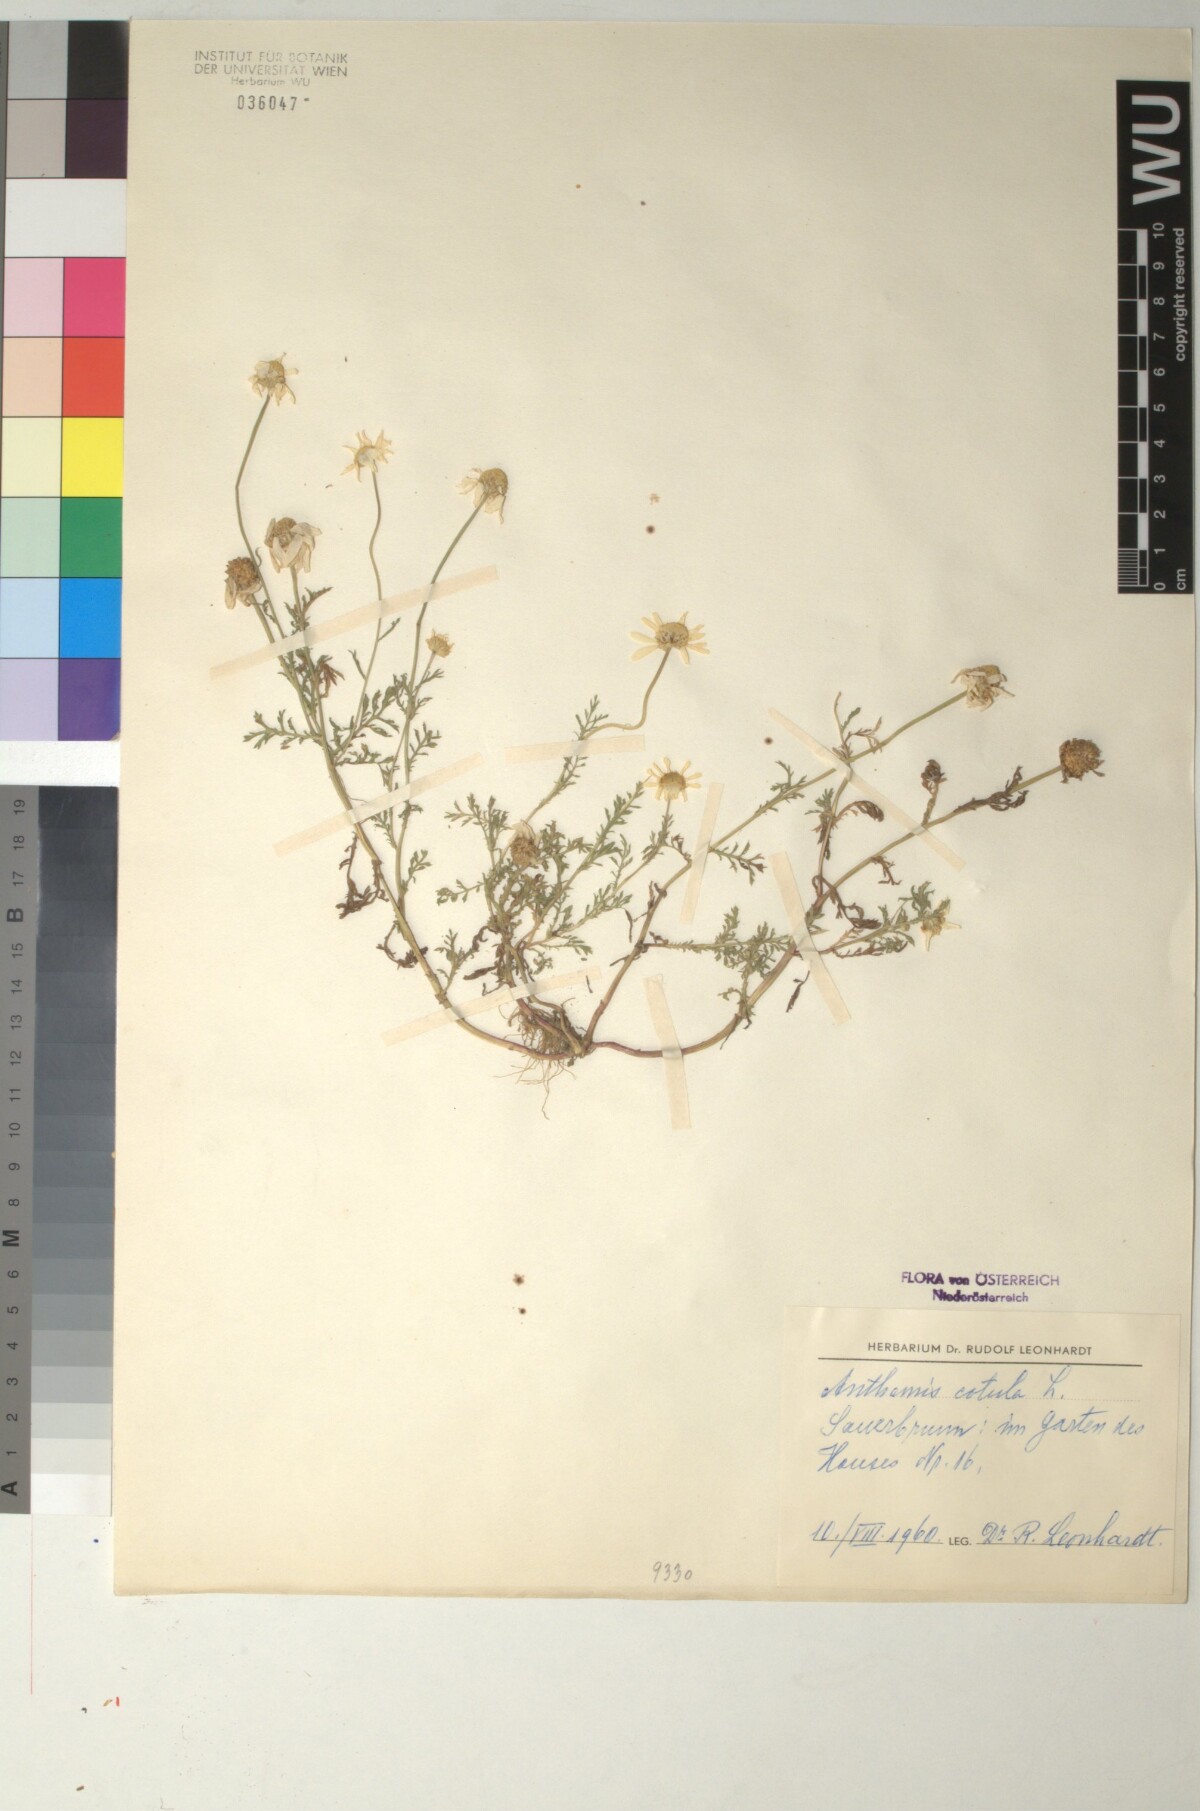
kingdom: Plantae
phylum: Tracheophyta
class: Magnoliopsida
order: Asterales
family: Asteraceae
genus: Anthemis
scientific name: Anthemis cotula
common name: Stinking chamomile
